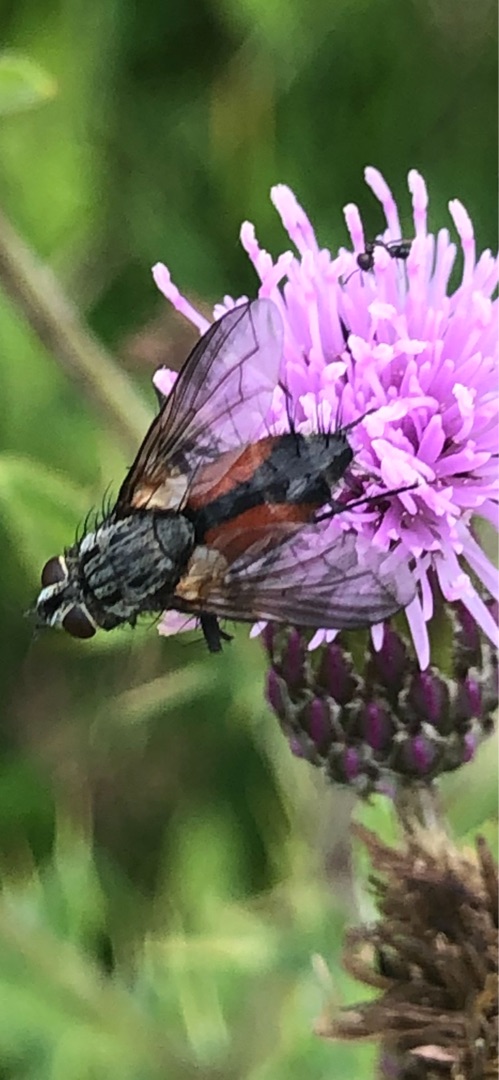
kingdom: Animalia
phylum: Arthropoda
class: Insecta
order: Diptera
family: Tachinidae
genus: Eriothrix
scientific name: Eriothrix rufomaculatus
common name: Rød snylteflue
